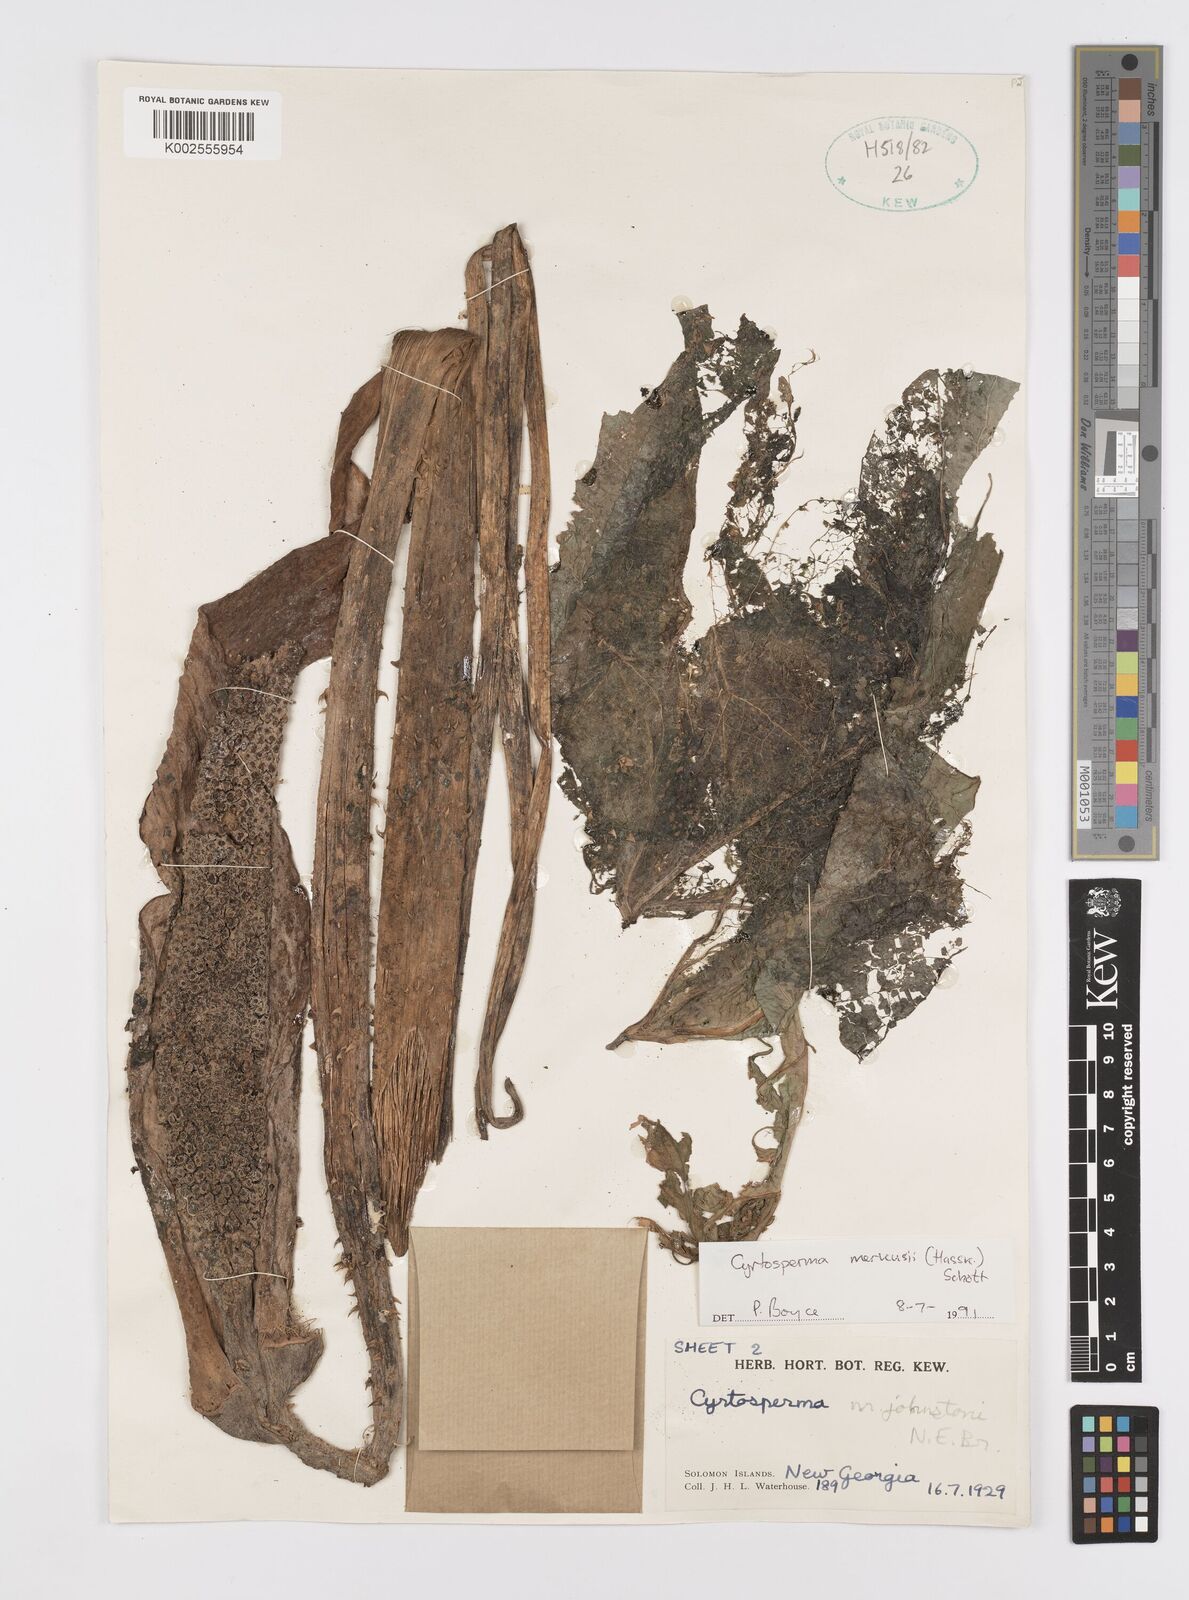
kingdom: Plantae
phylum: Tracheophyta
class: Liliopsida
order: Alismatales
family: Araceae
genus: Cyrtosperma
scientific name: Cyrtosperma merkusii
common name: Giant swamp-taro
